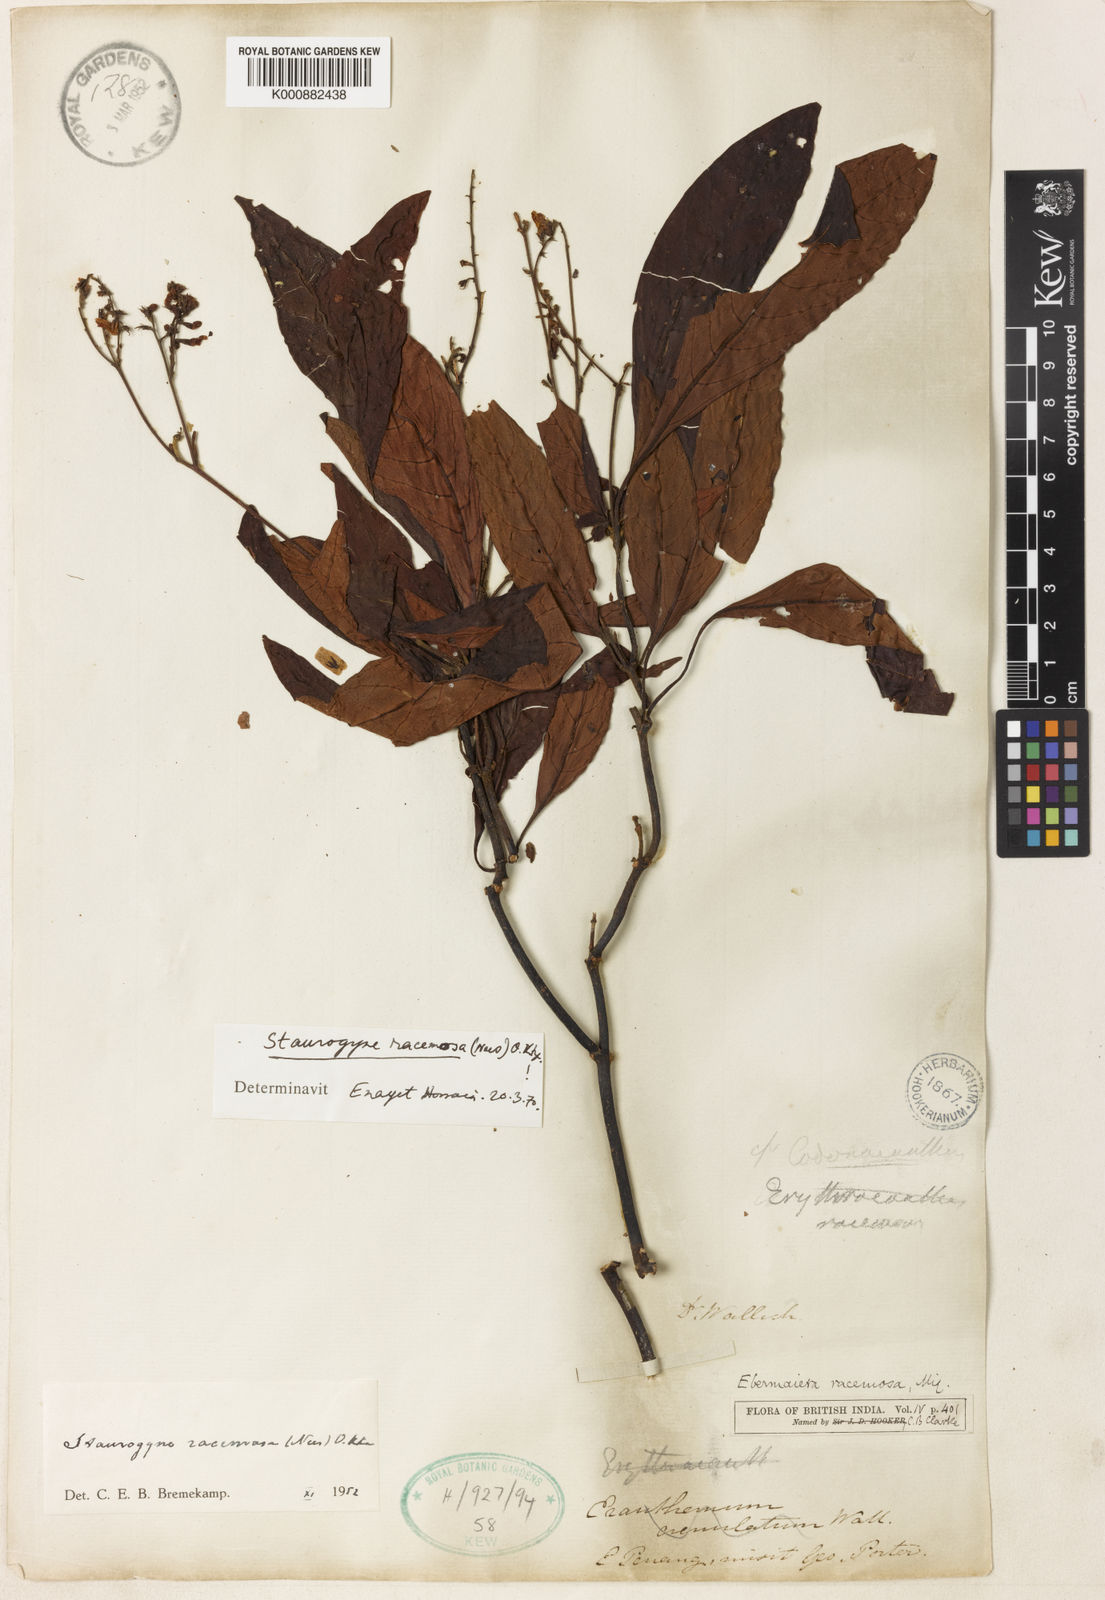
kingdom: Plantae
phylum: Tracheophyta
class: Magnoliopsida
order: Lamiales
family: Acanthaceae
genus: Staurogyne
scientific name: Staurogyne racemosa
